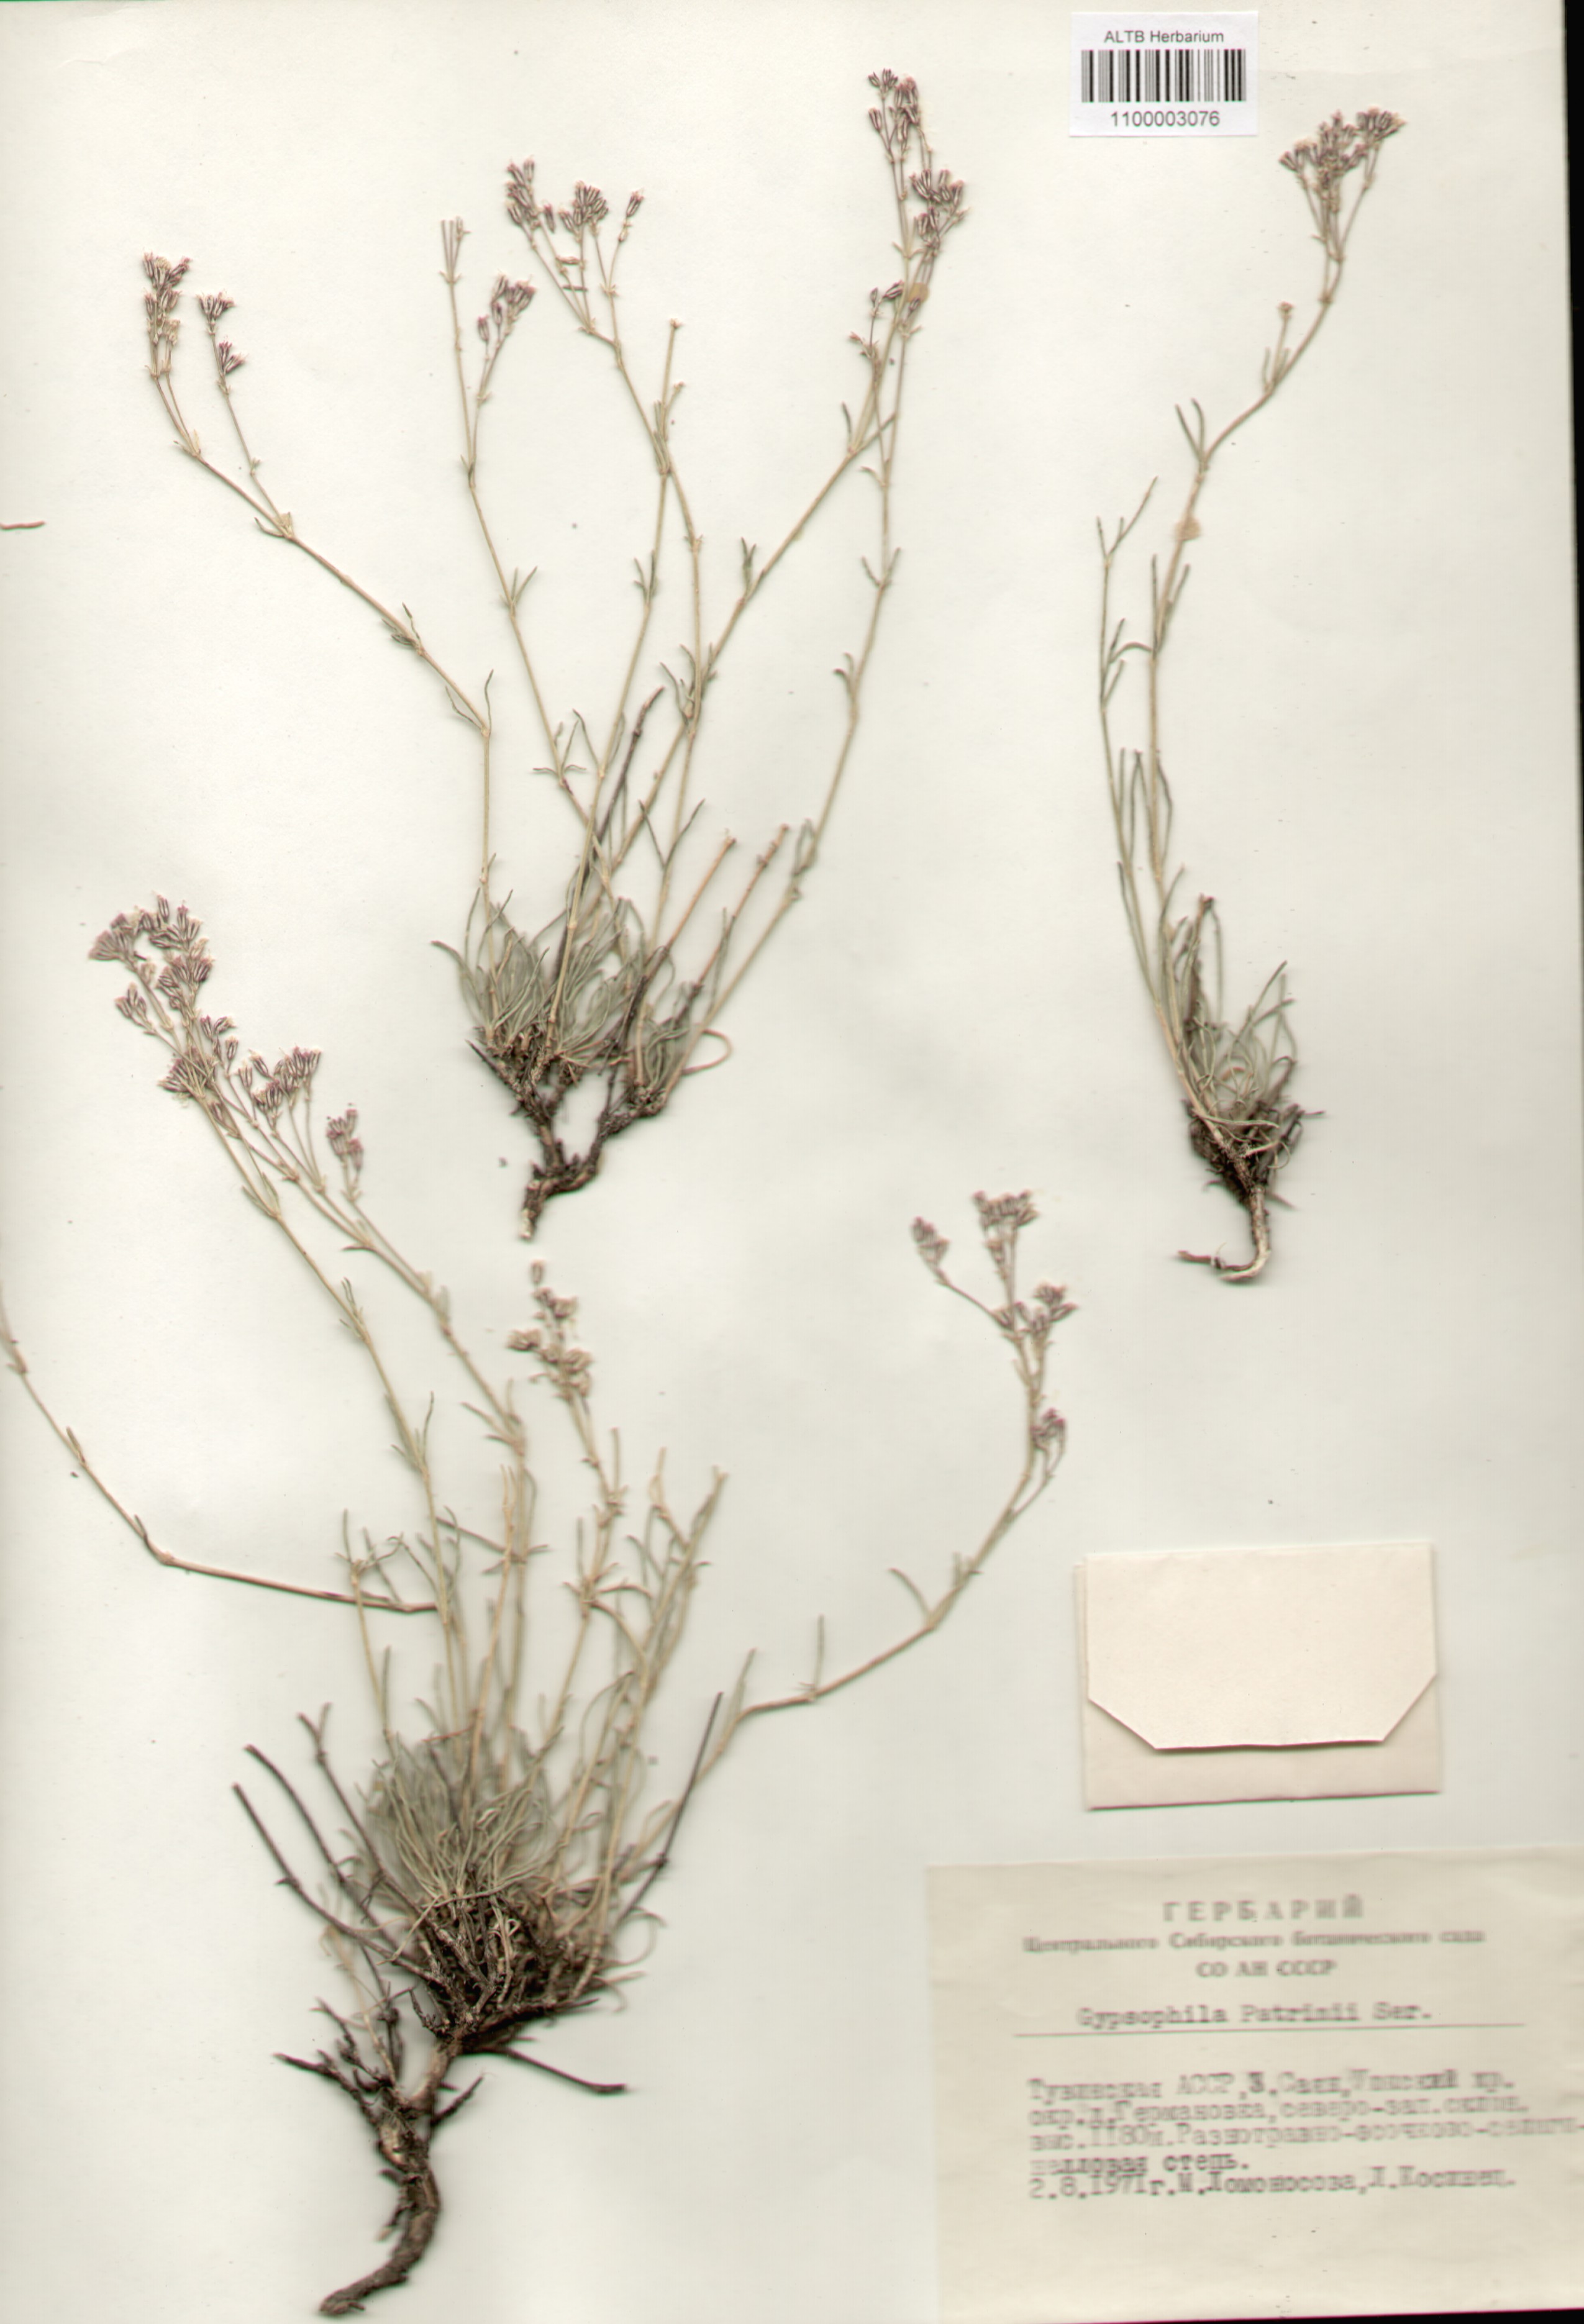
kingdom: Plantae
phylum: Tracheophyta
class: Magnoliopsida
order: Caryophyllales
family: Caryophyllaceae
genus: Gypsophila
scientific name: Gypsophila patrinii
